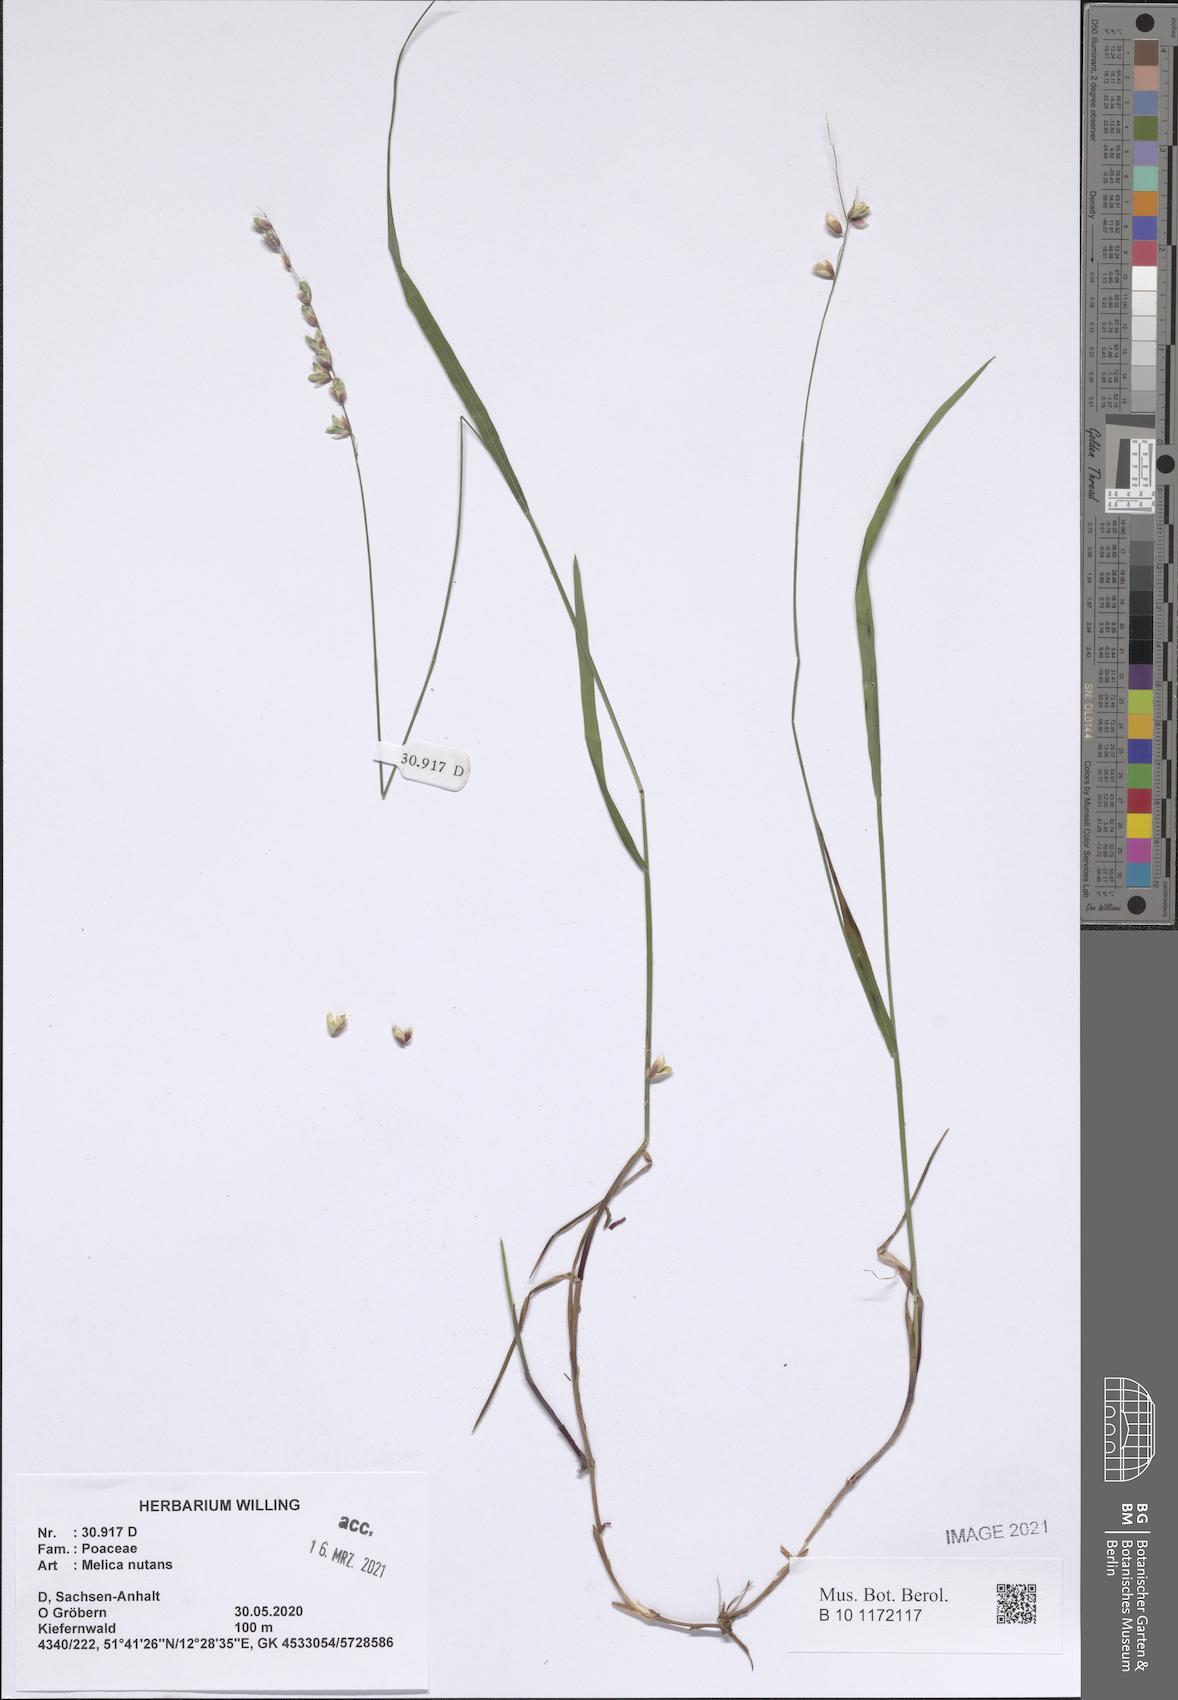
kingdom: Plantae
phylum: Tracheophyta
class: Liliopsida
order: Poales
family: Poaceae
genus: Melica
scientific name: Melica nutans
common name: Mountain melick
